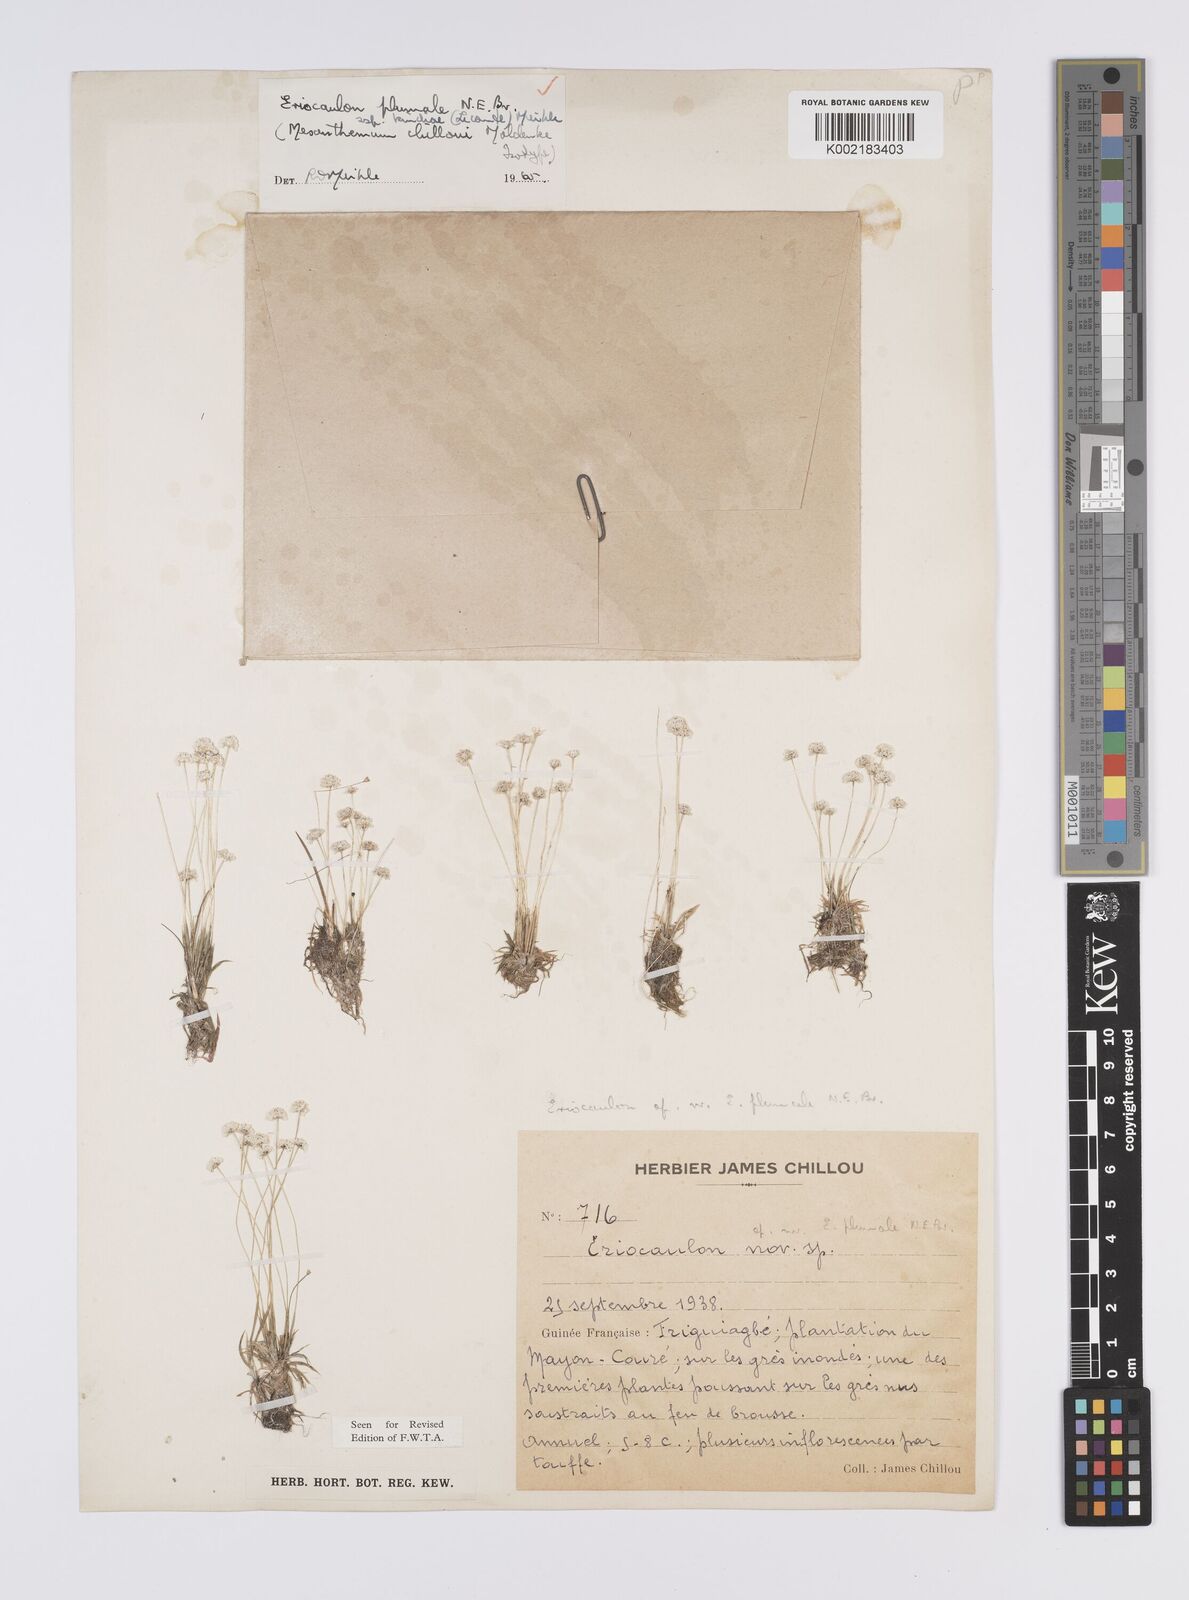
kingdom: Plantae
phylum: Tracheophyta
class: Liliopsida
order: Poales
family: Eriocaulaceae
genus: Eriocaulon
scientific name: Eriocaulon plumale
